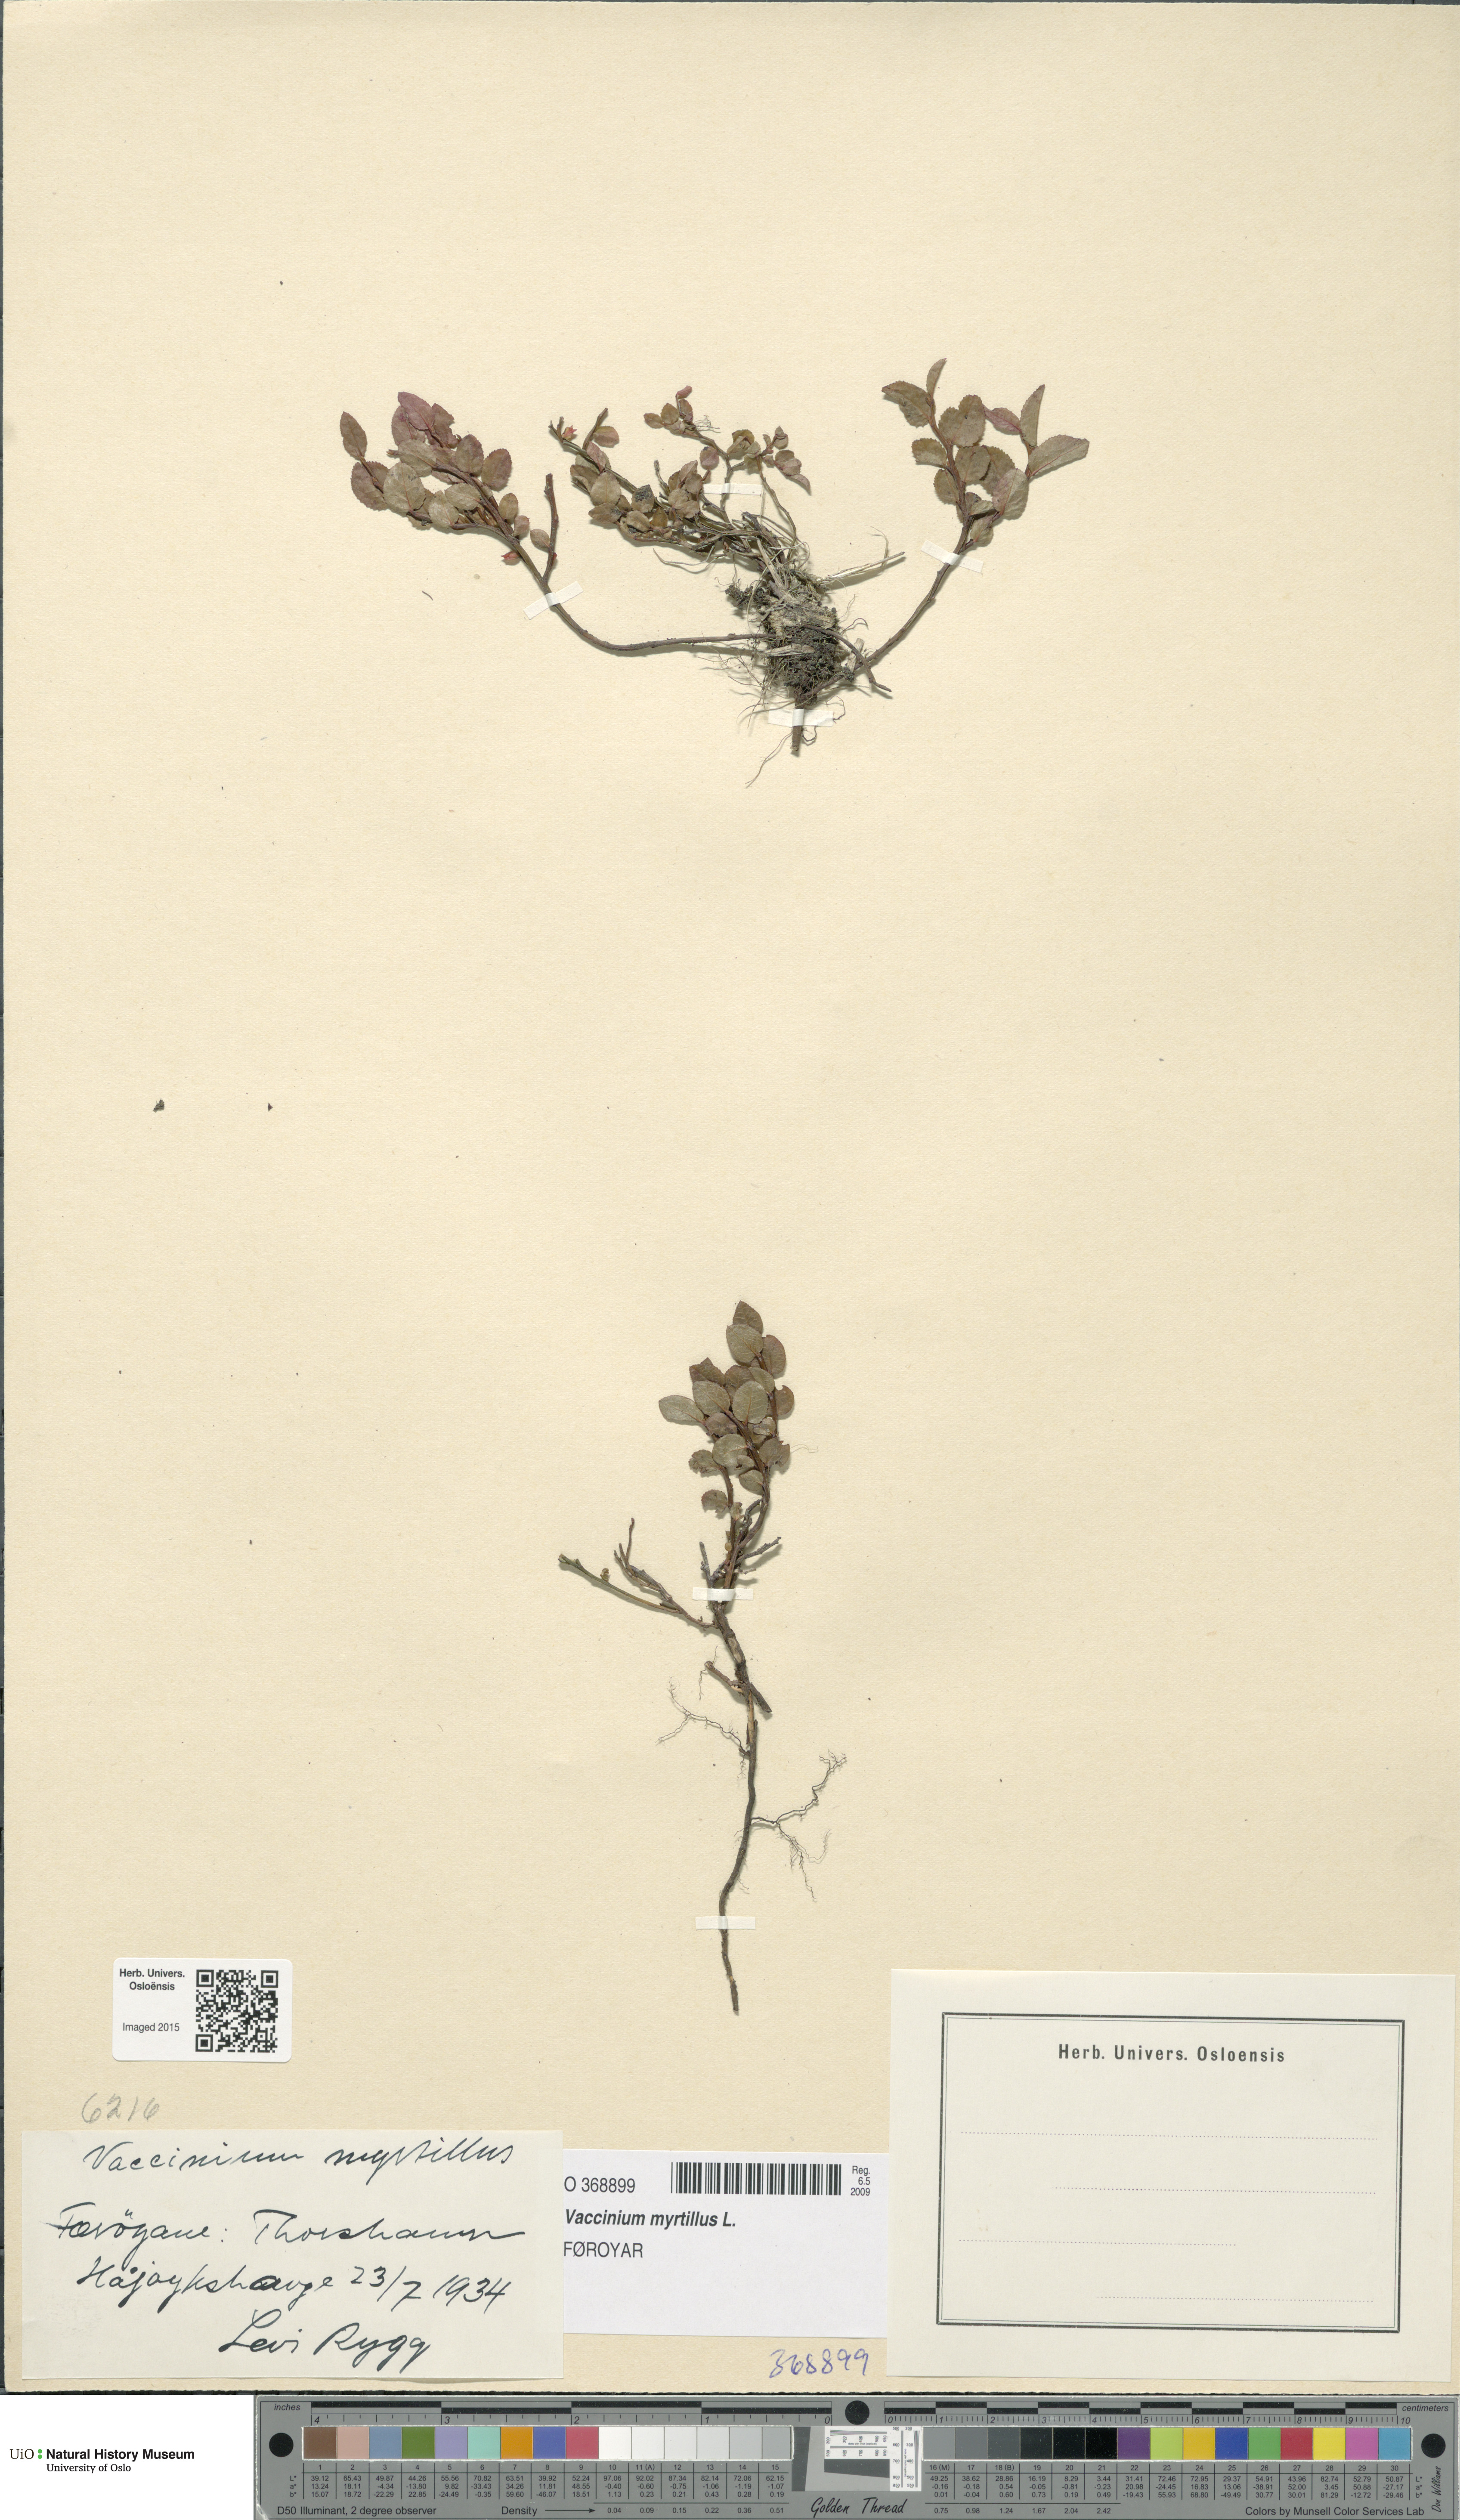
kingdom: Plantae
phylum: Tracheophyta
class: Magnoliopsida
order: Ericales
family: Ericaceae
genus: Vaccinium
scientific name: Vaccinium myrtillus
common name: Bilberry
